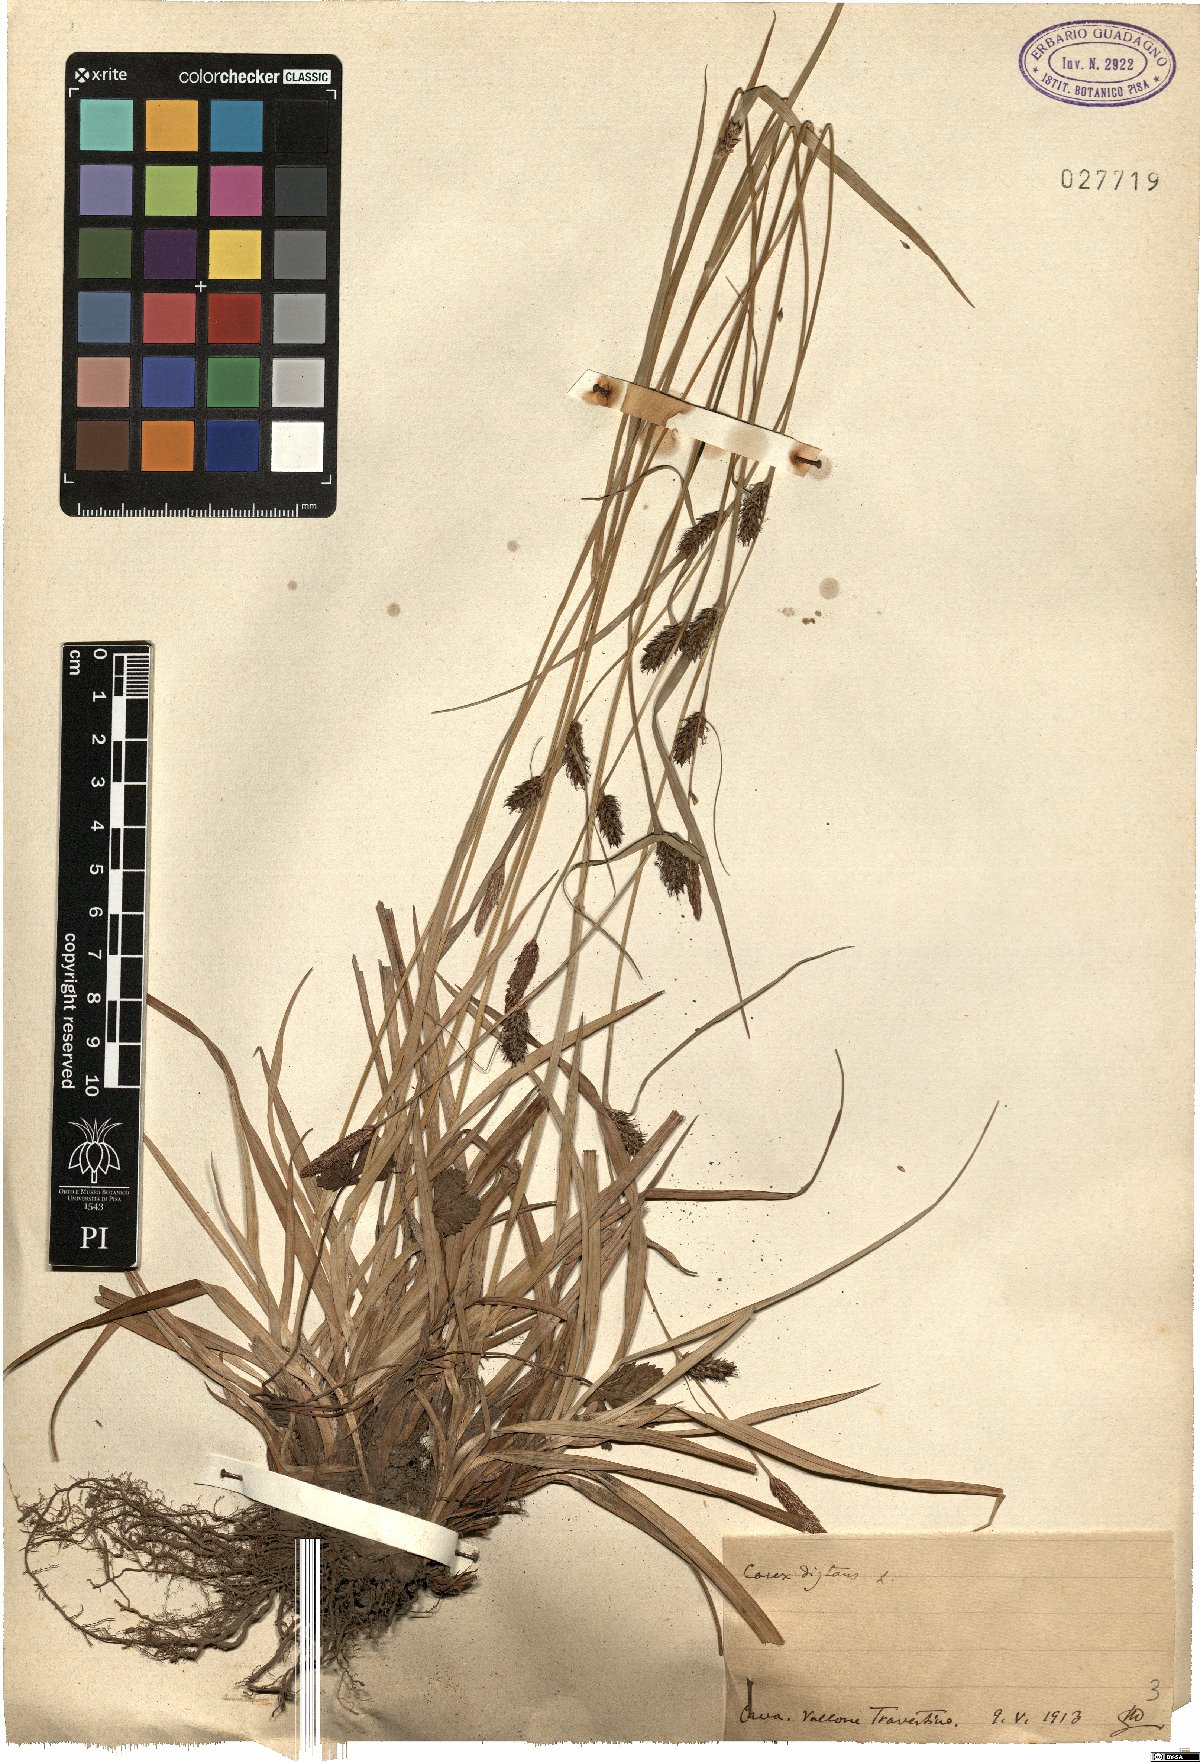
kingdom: Plantae
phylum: Tracheophyta
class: Liliopsida
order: Poales
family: Cyperaceae
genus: Carex
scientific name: Carex distans
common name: Distant sedge
